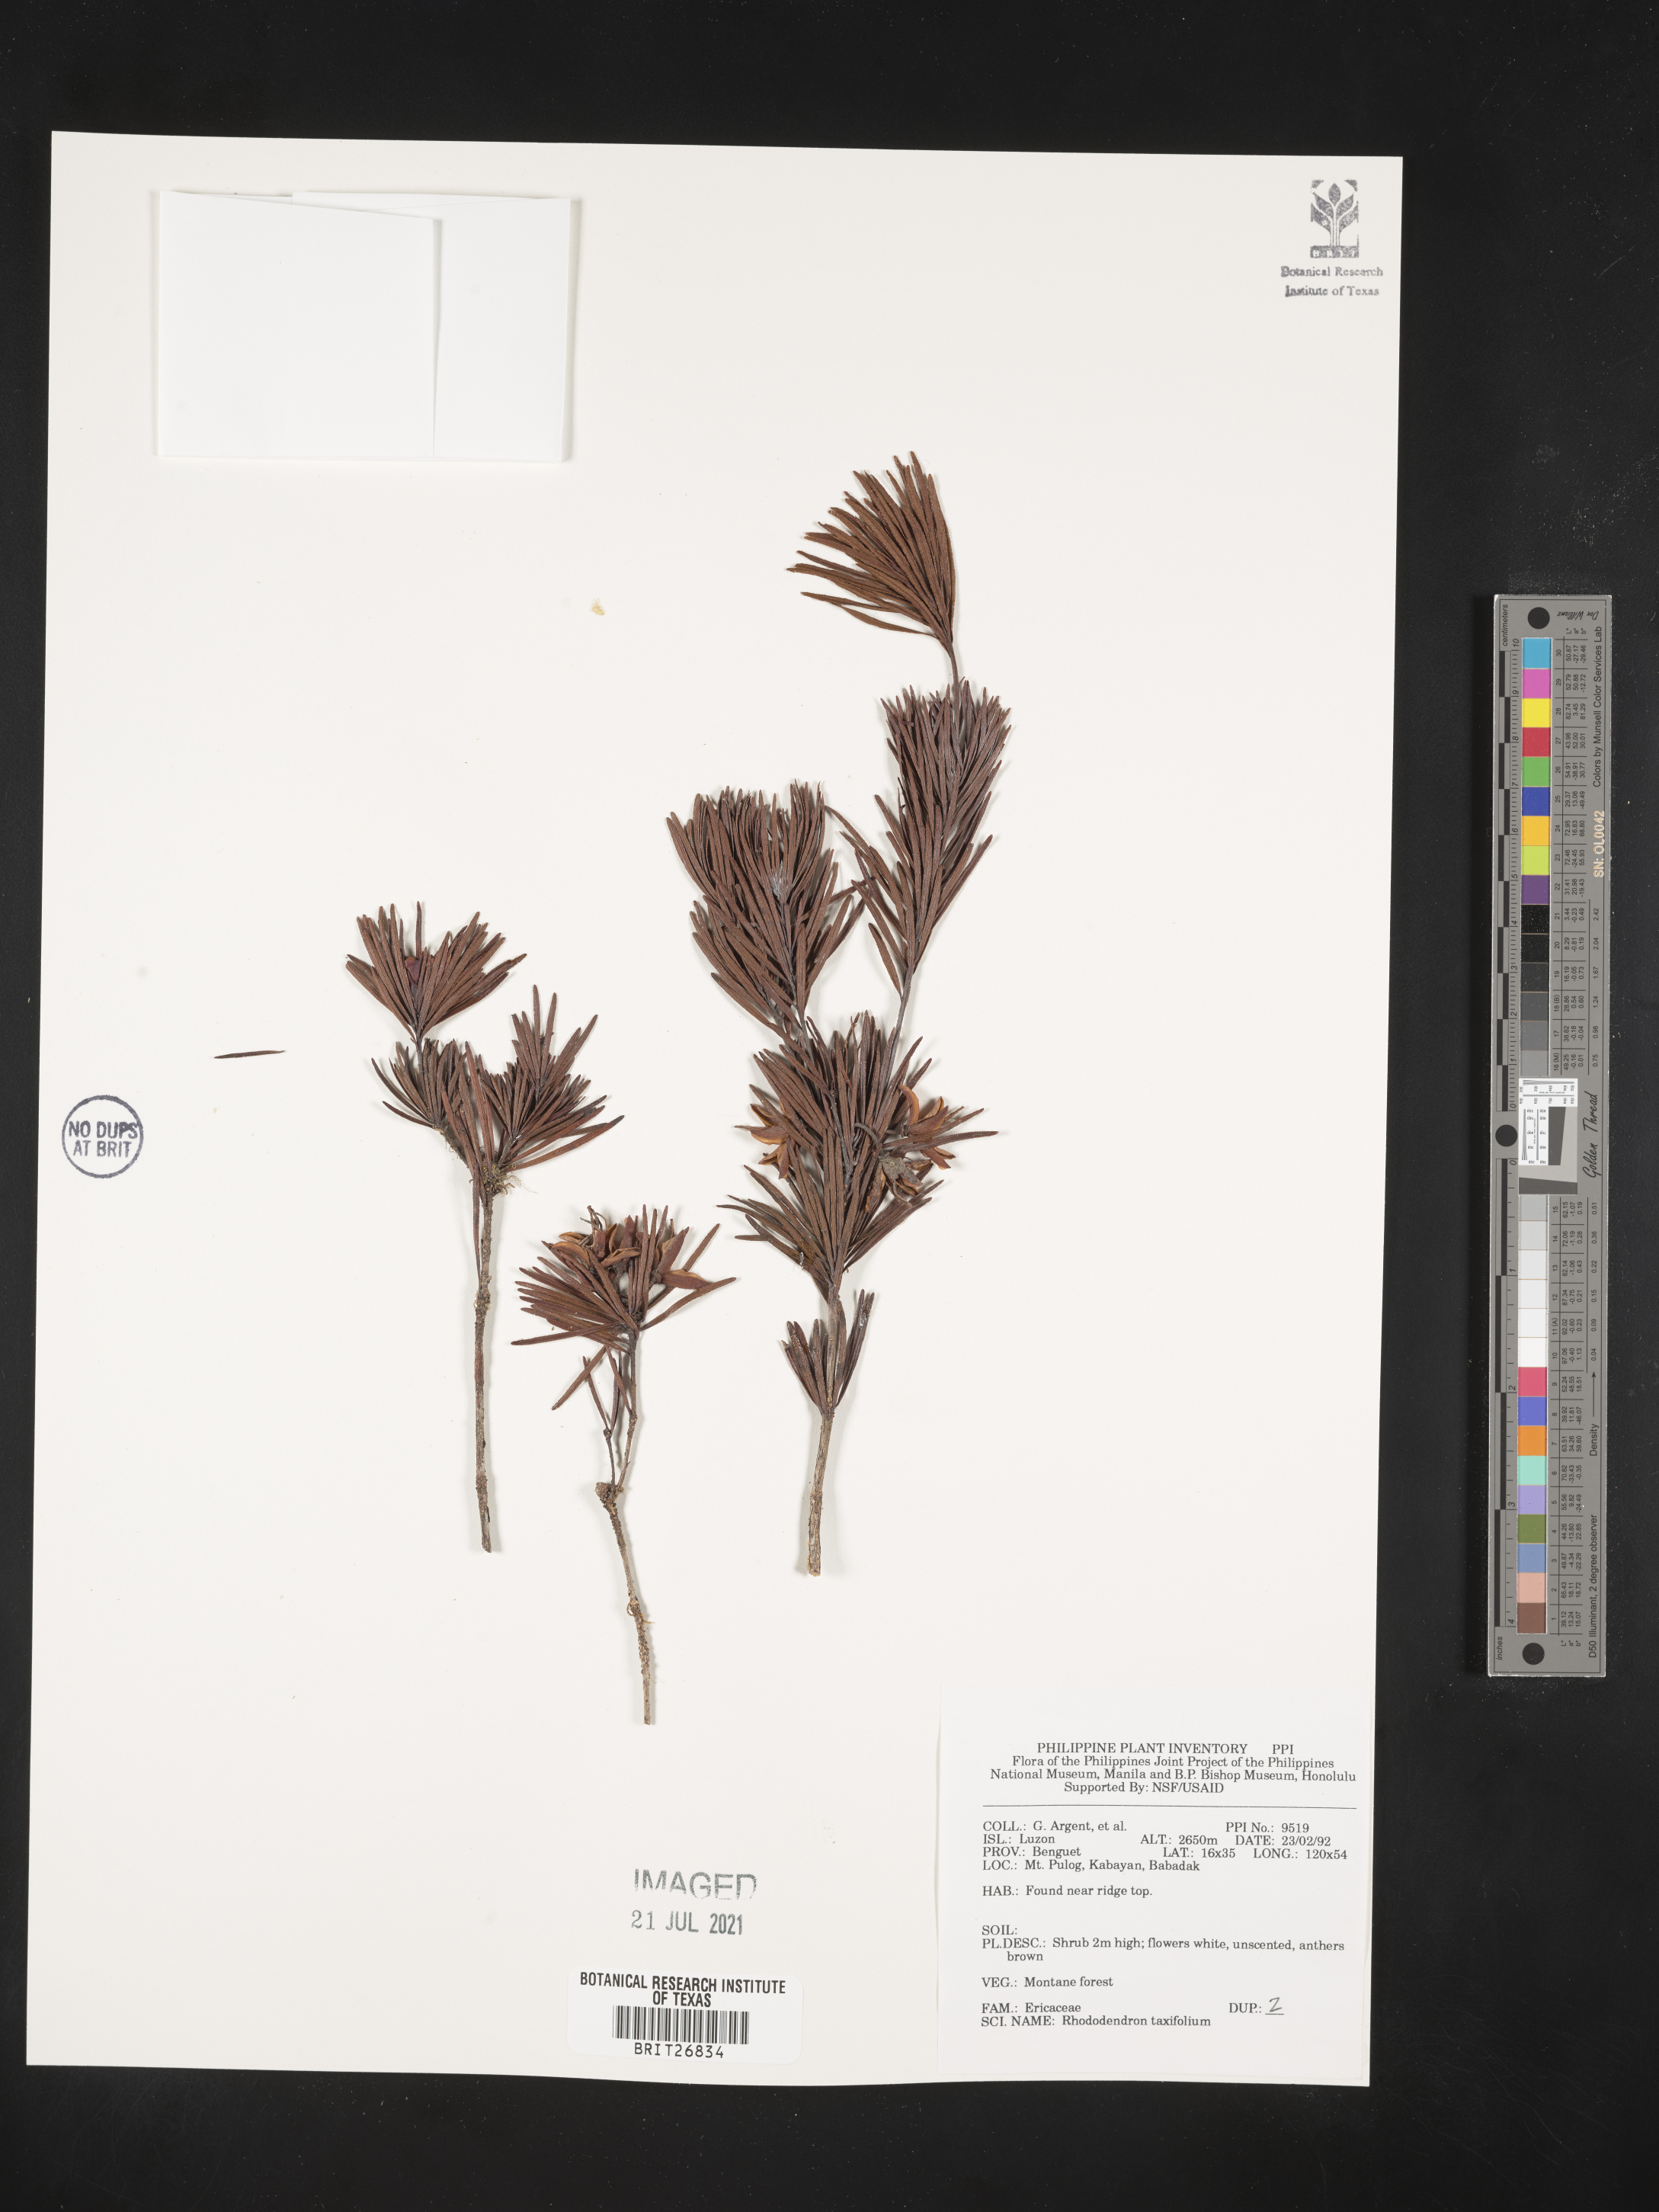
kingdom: Plantae
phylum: Tracheophyta
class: Magnoliopsida
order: Ericales
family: Ericaceae
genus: Rhododendron
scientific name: Rhododendron taxifolium
